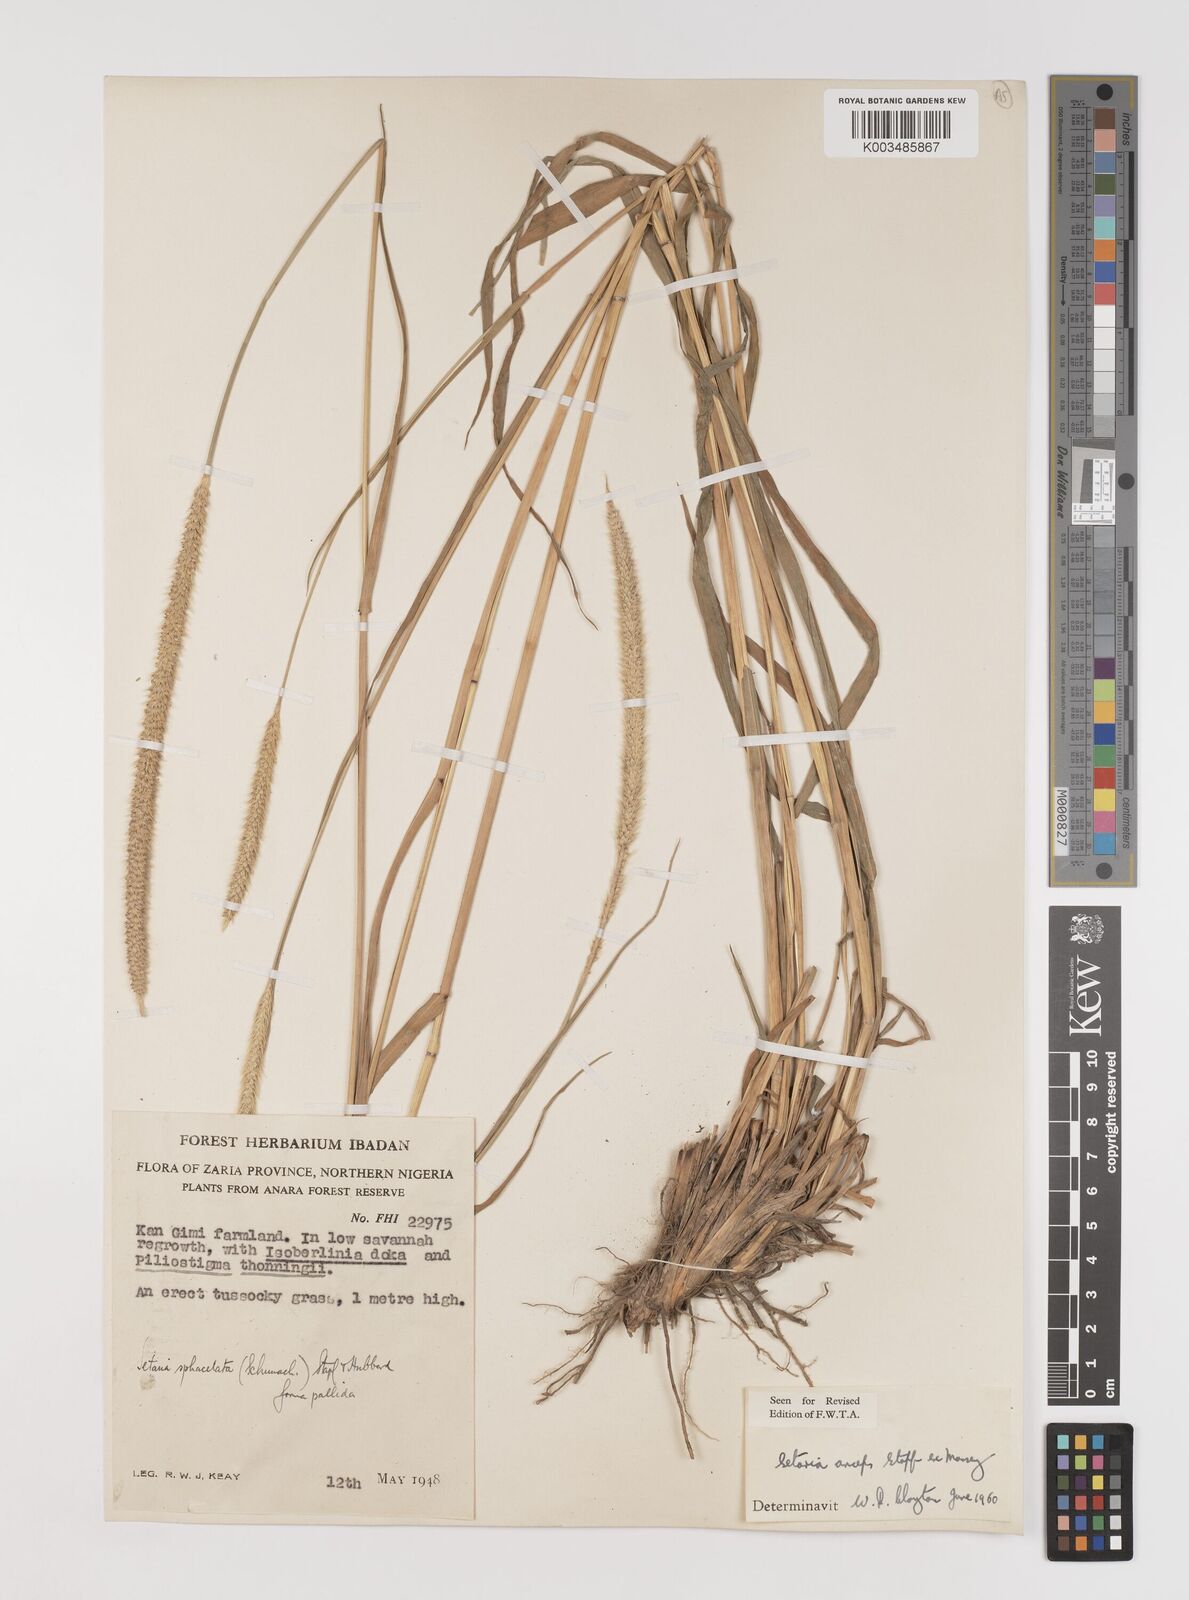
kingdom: Plantae
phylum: Tracheophyta
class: Liliopsida
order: Poales
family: Poaceae
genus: Setaria
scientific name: Setaria sphacelata
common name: African bristlegrass
